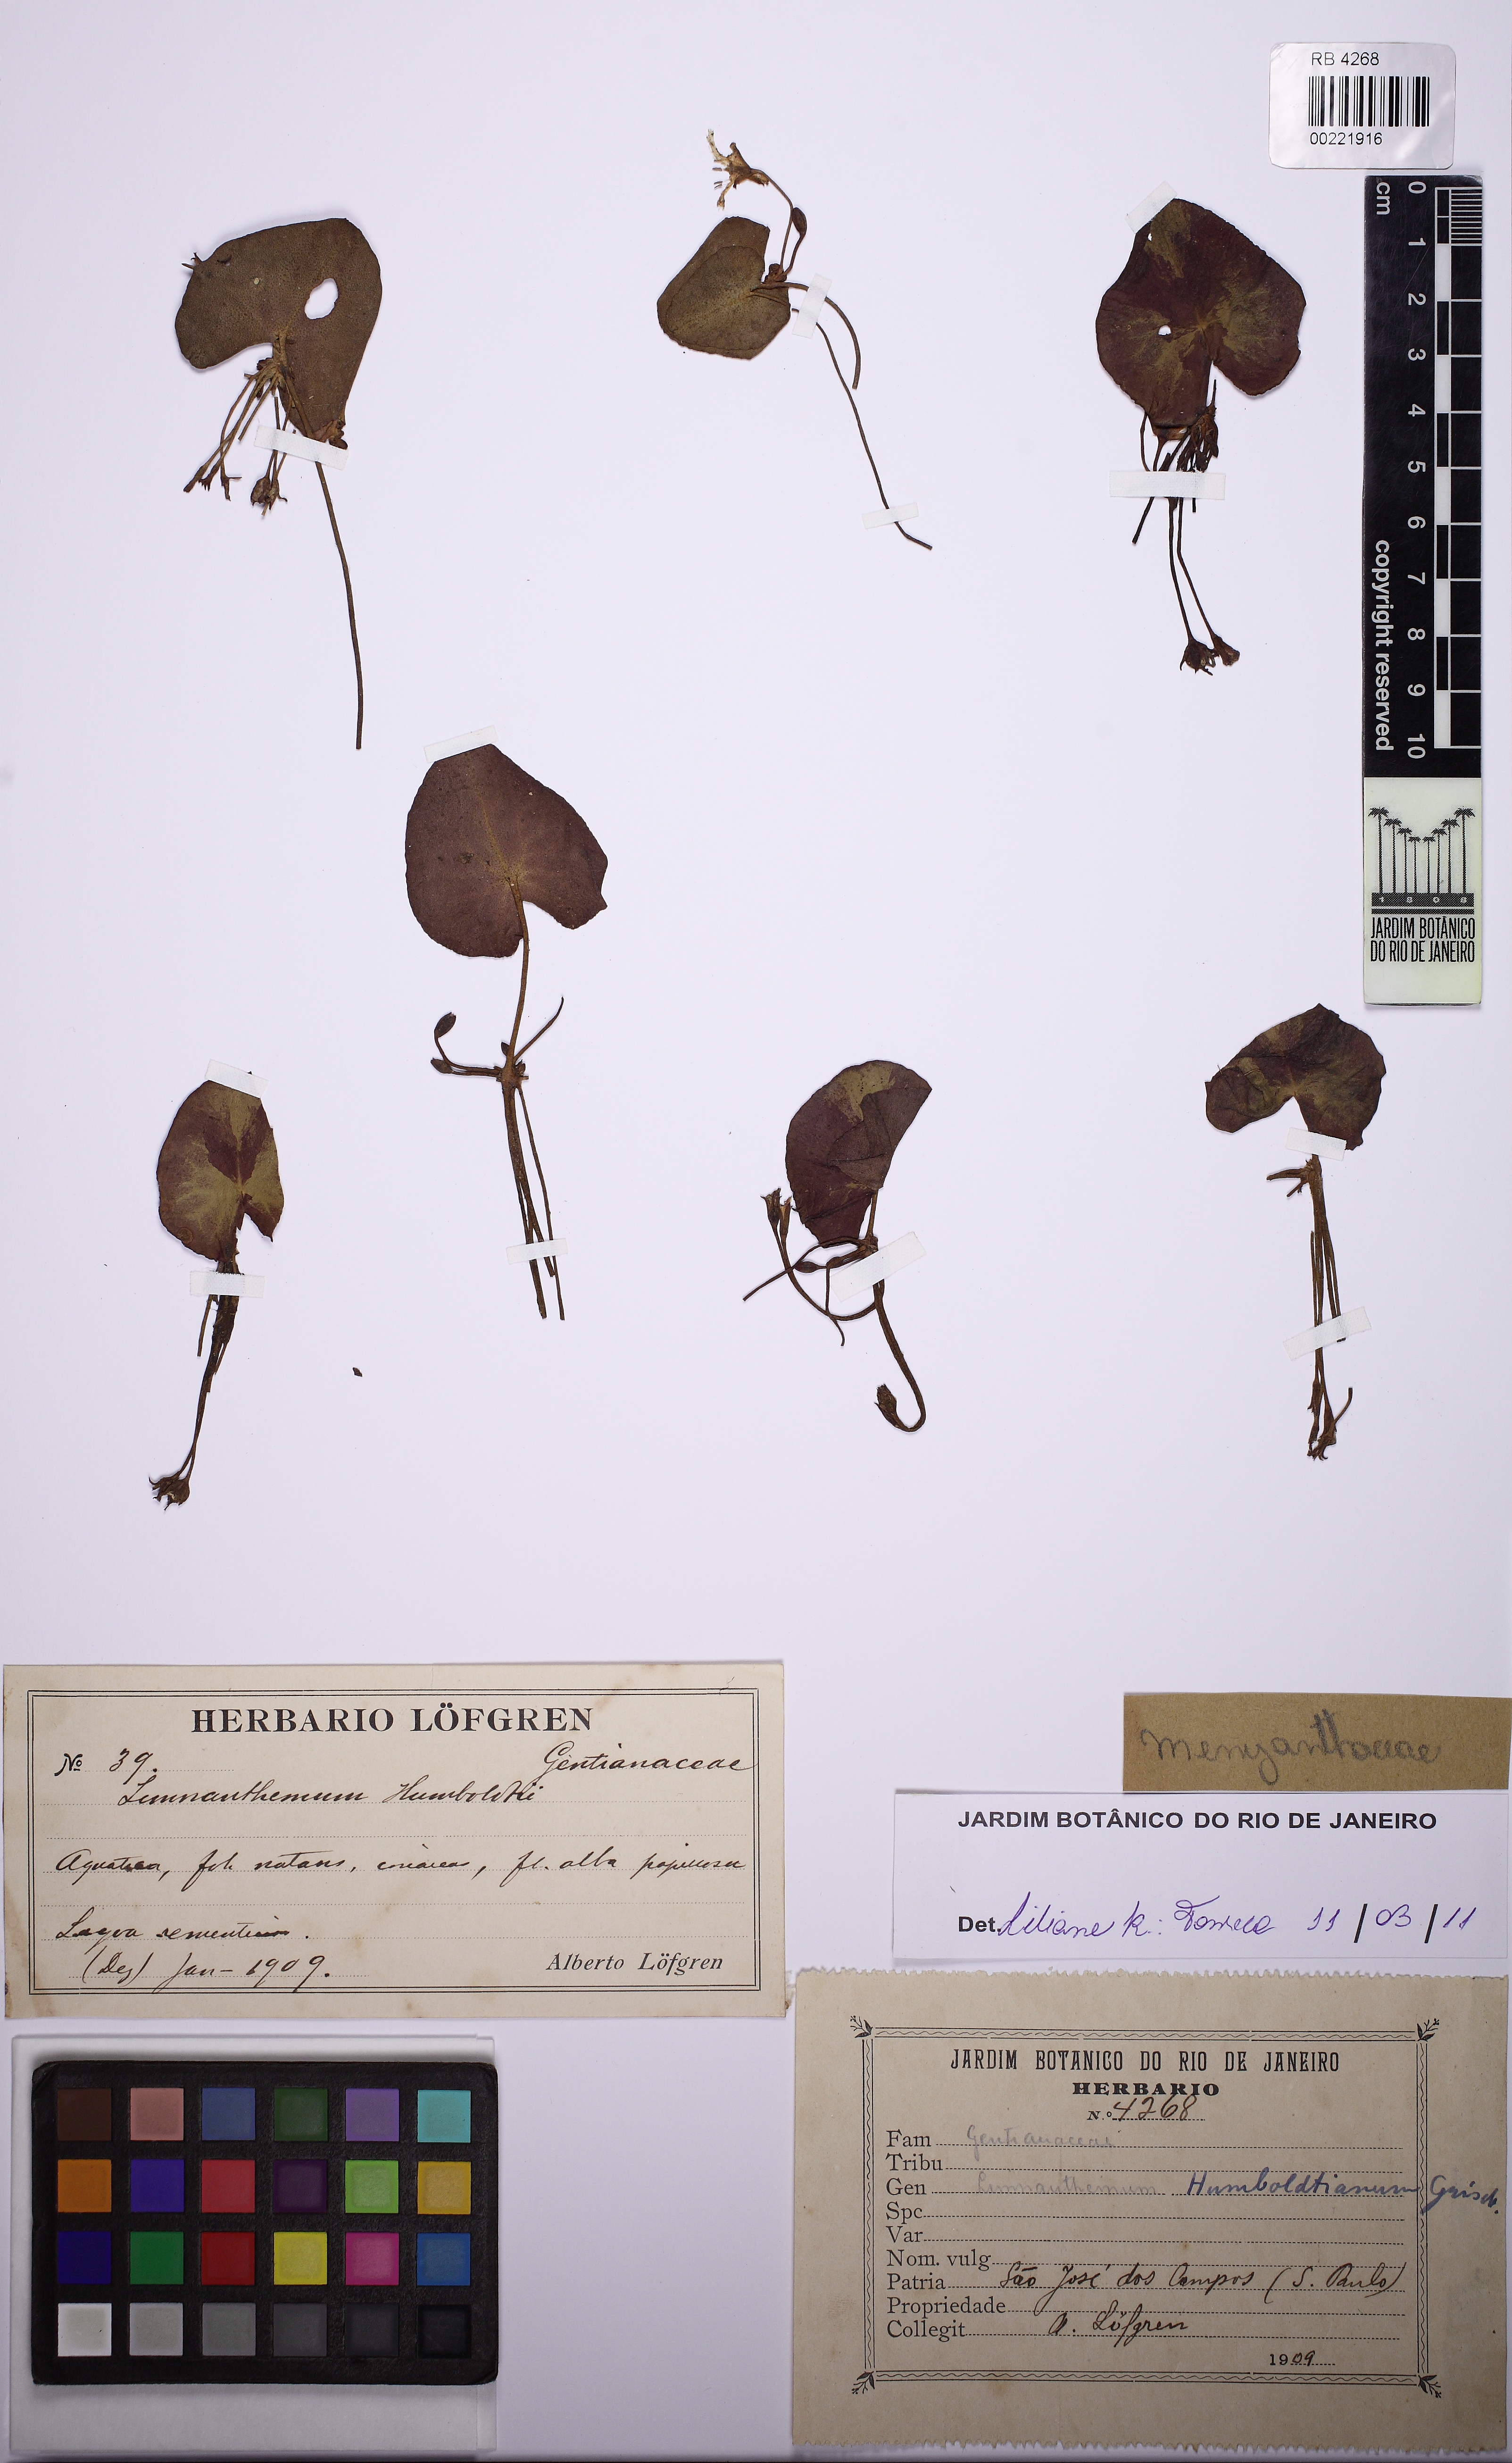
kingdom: Plantae
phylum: Tracheophyta
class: Magnoliopsida
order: Asterales
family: Menyanthaceae
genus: Nymphoides
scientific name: Nymphoides humboldtiana
